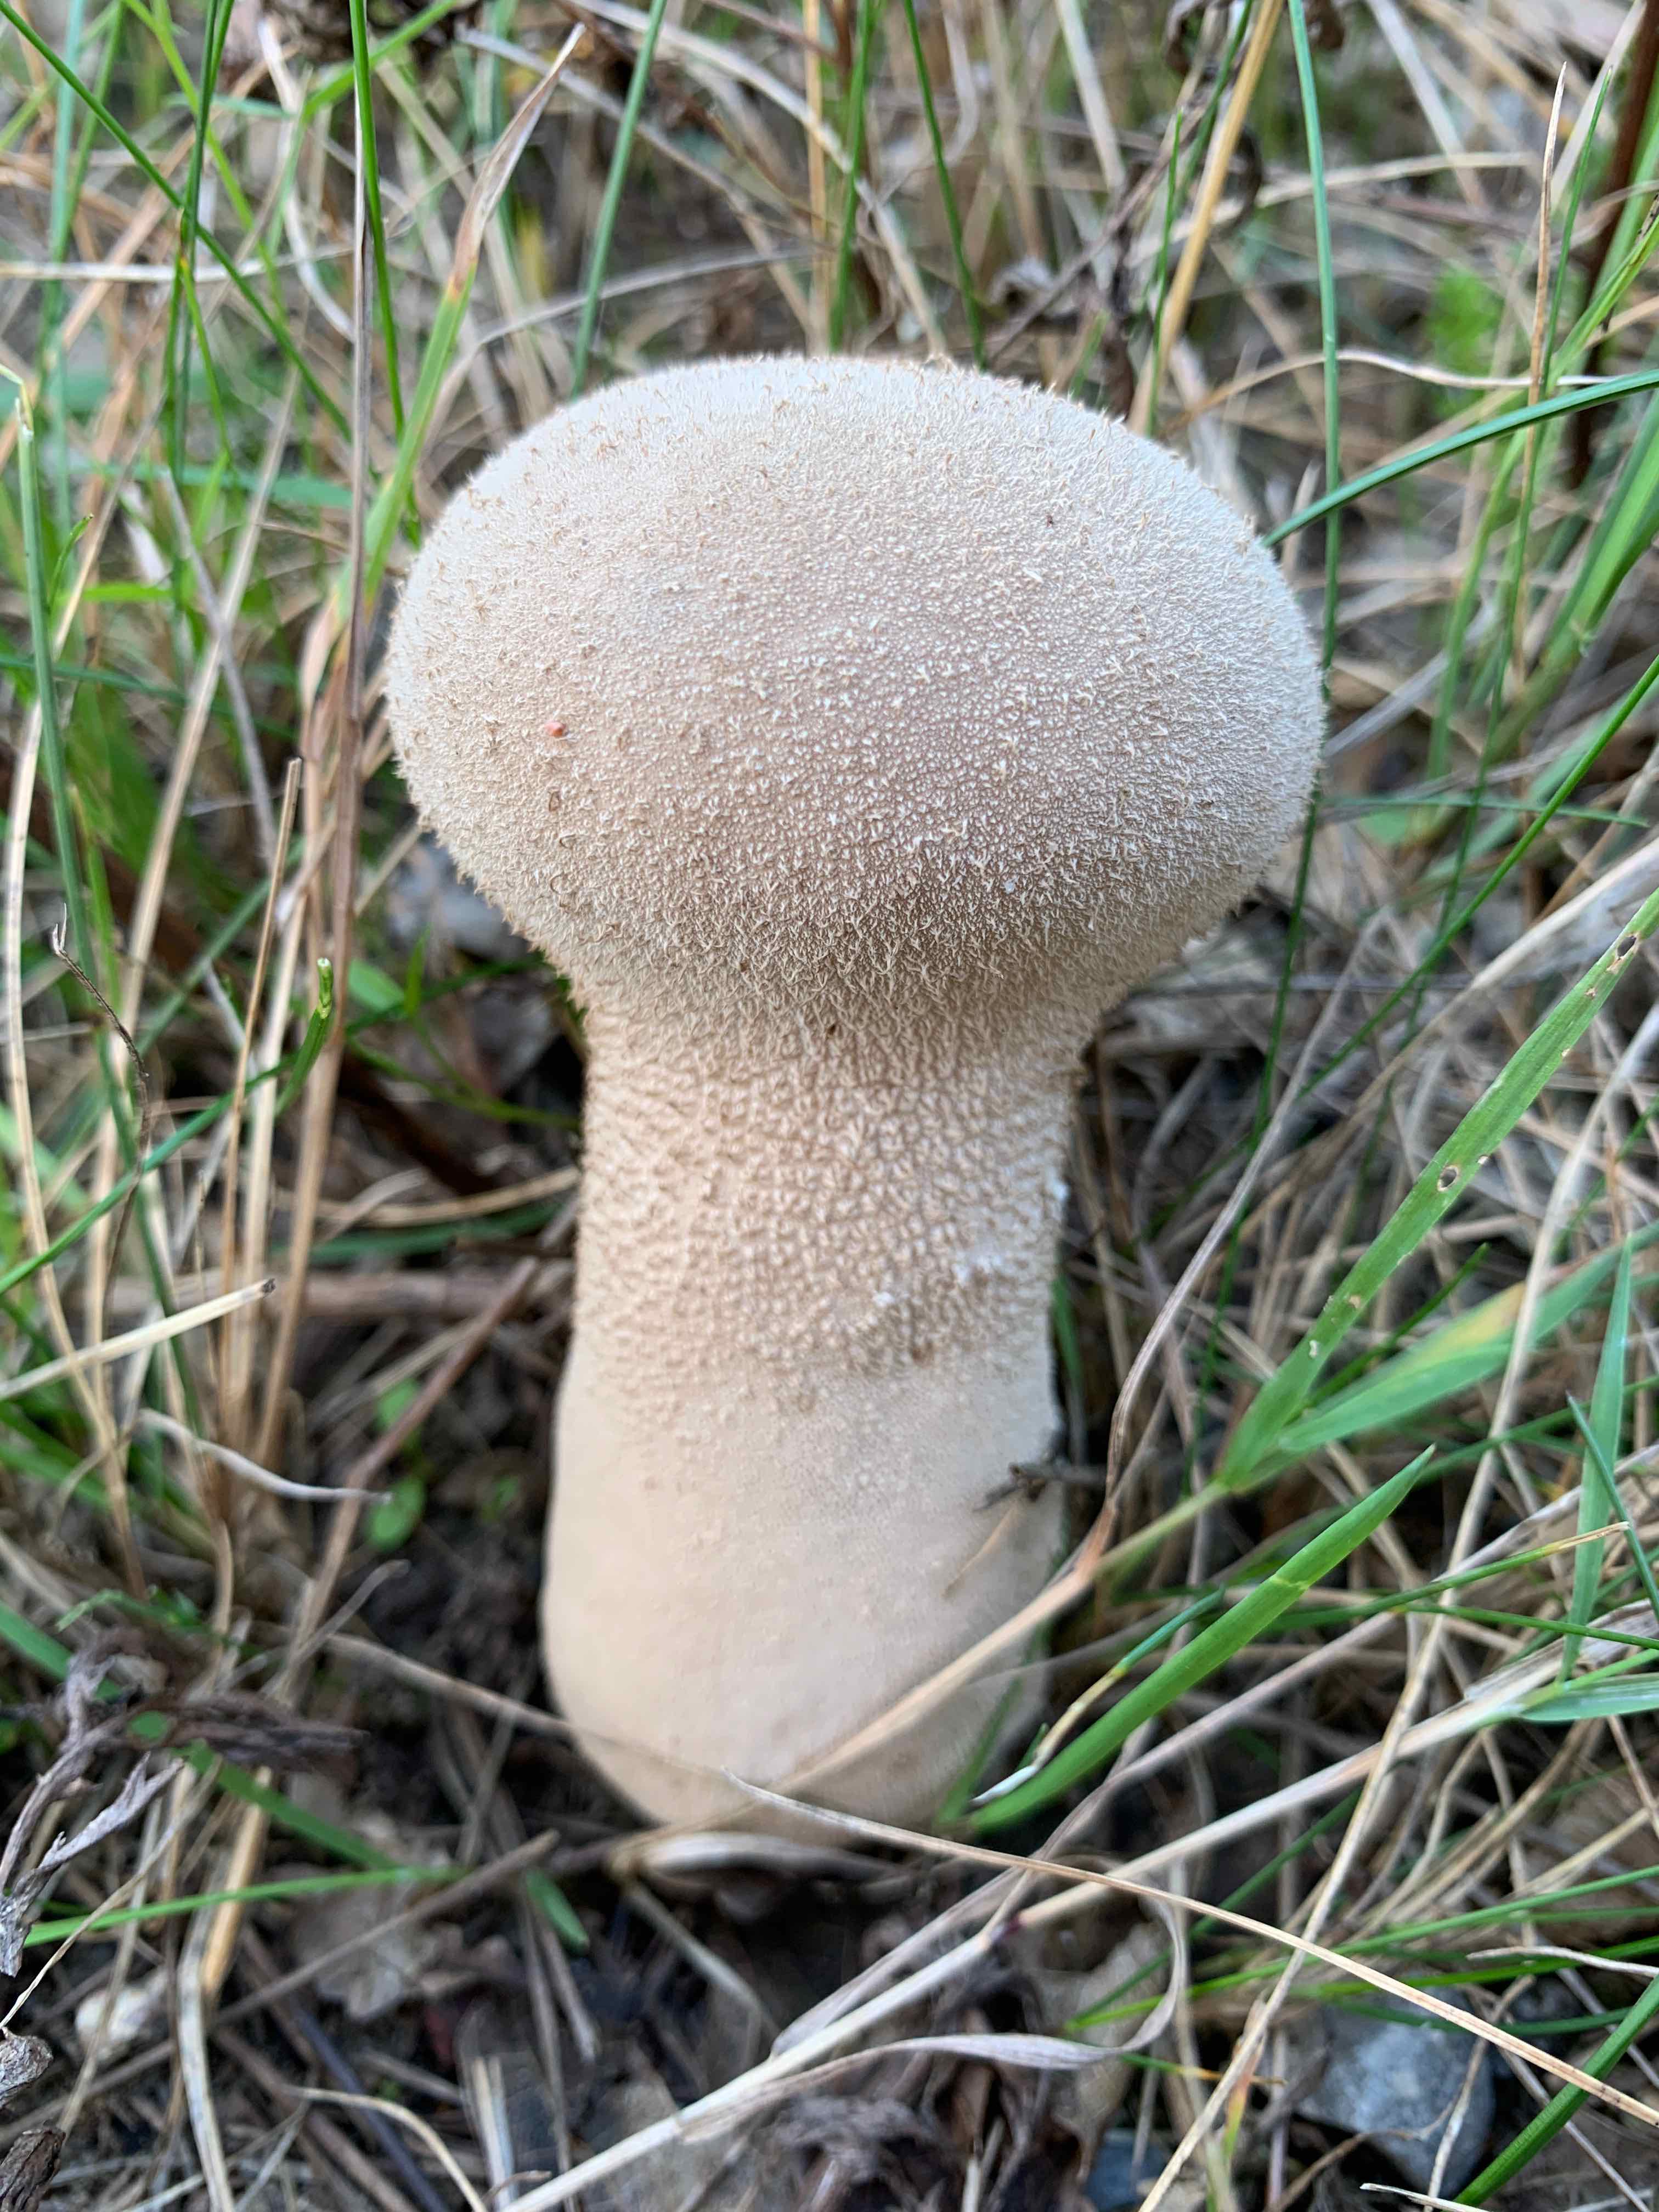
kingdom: Fungi
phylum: Basidiomycota
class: Agaricomycetes
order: Agaricales
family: Lycoperdaceae
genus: Lycoperdon
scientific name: Lycoperdon excipuliforme
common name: højstokket støvbold
